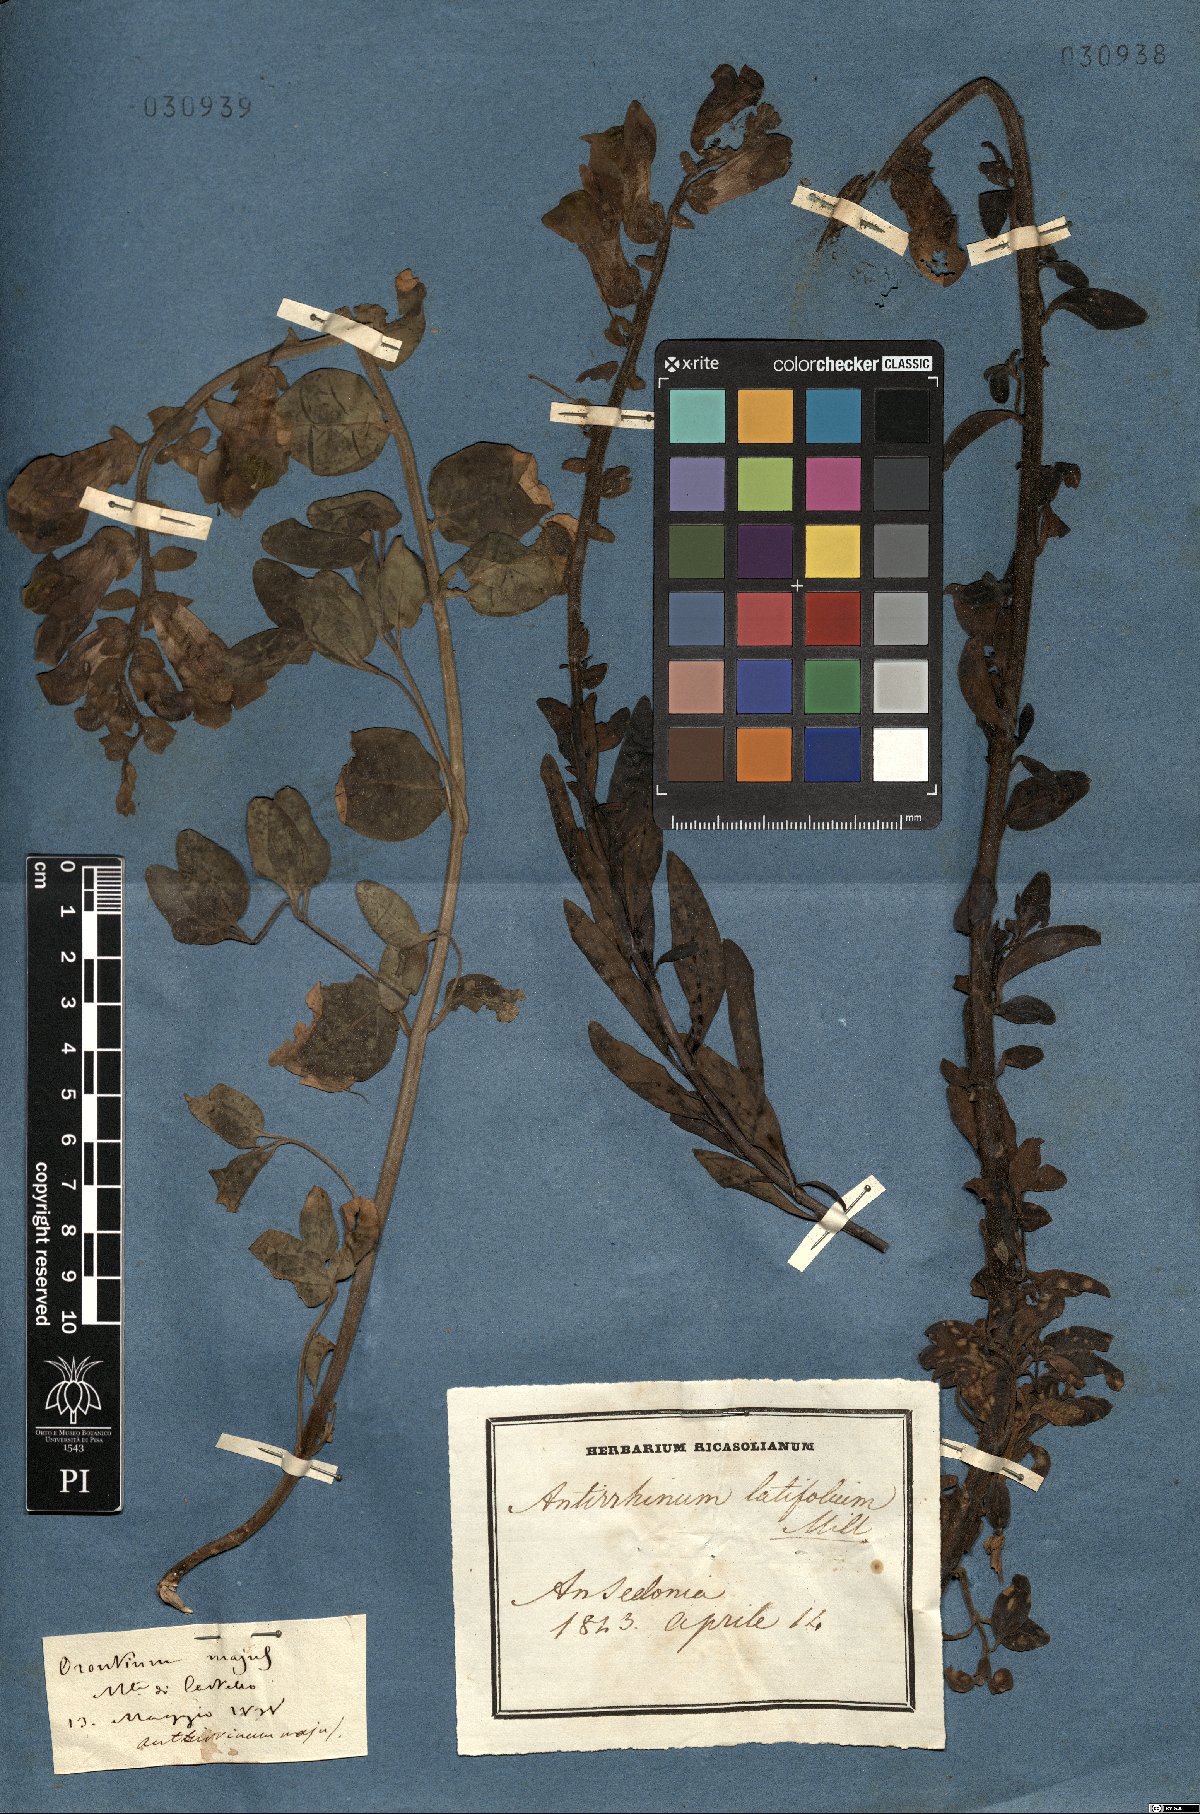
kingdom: Plantae
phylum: Tracheophyta
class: Magnoliopsida
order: Lamiales
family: Plantaginaceae
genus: Antirrhinum
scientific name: Antirrhinum latifolium
